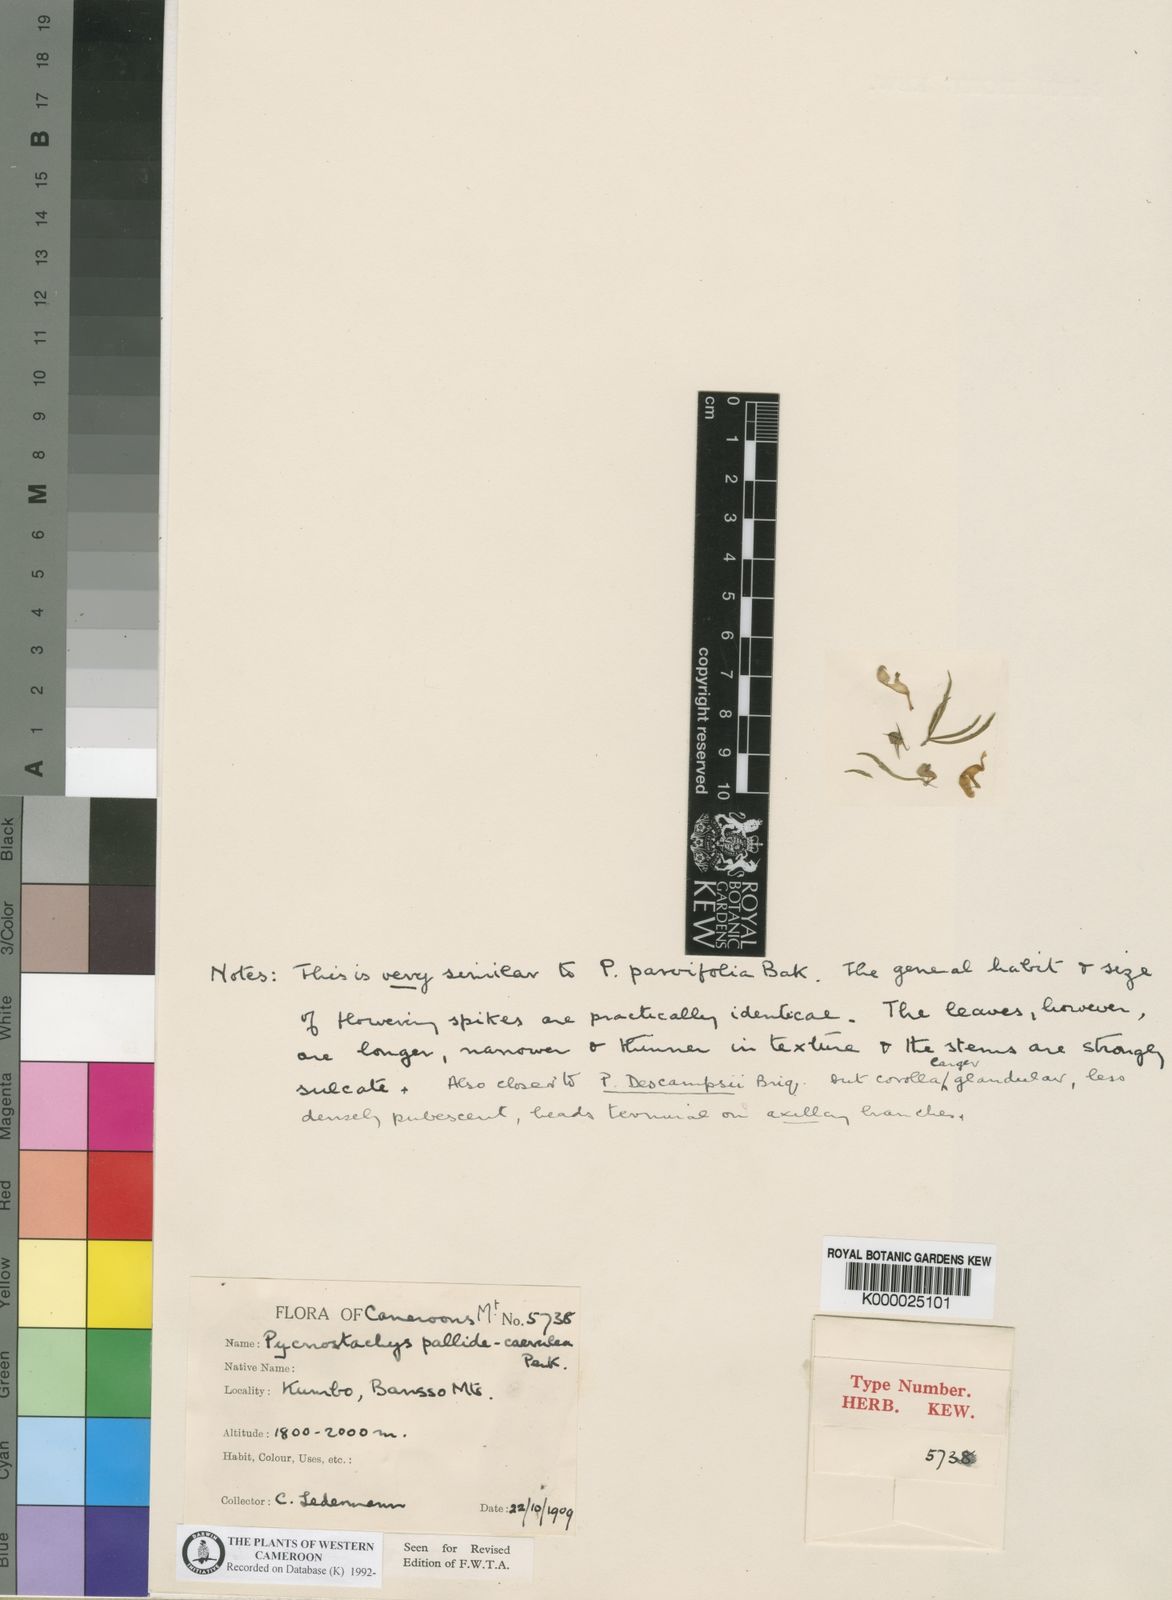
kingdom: Plantae
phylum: Tracheophyta
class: Magnoliopsida
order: Lamiales
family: Lamiaceae
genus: Coleus
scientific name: Coleus descampsii
